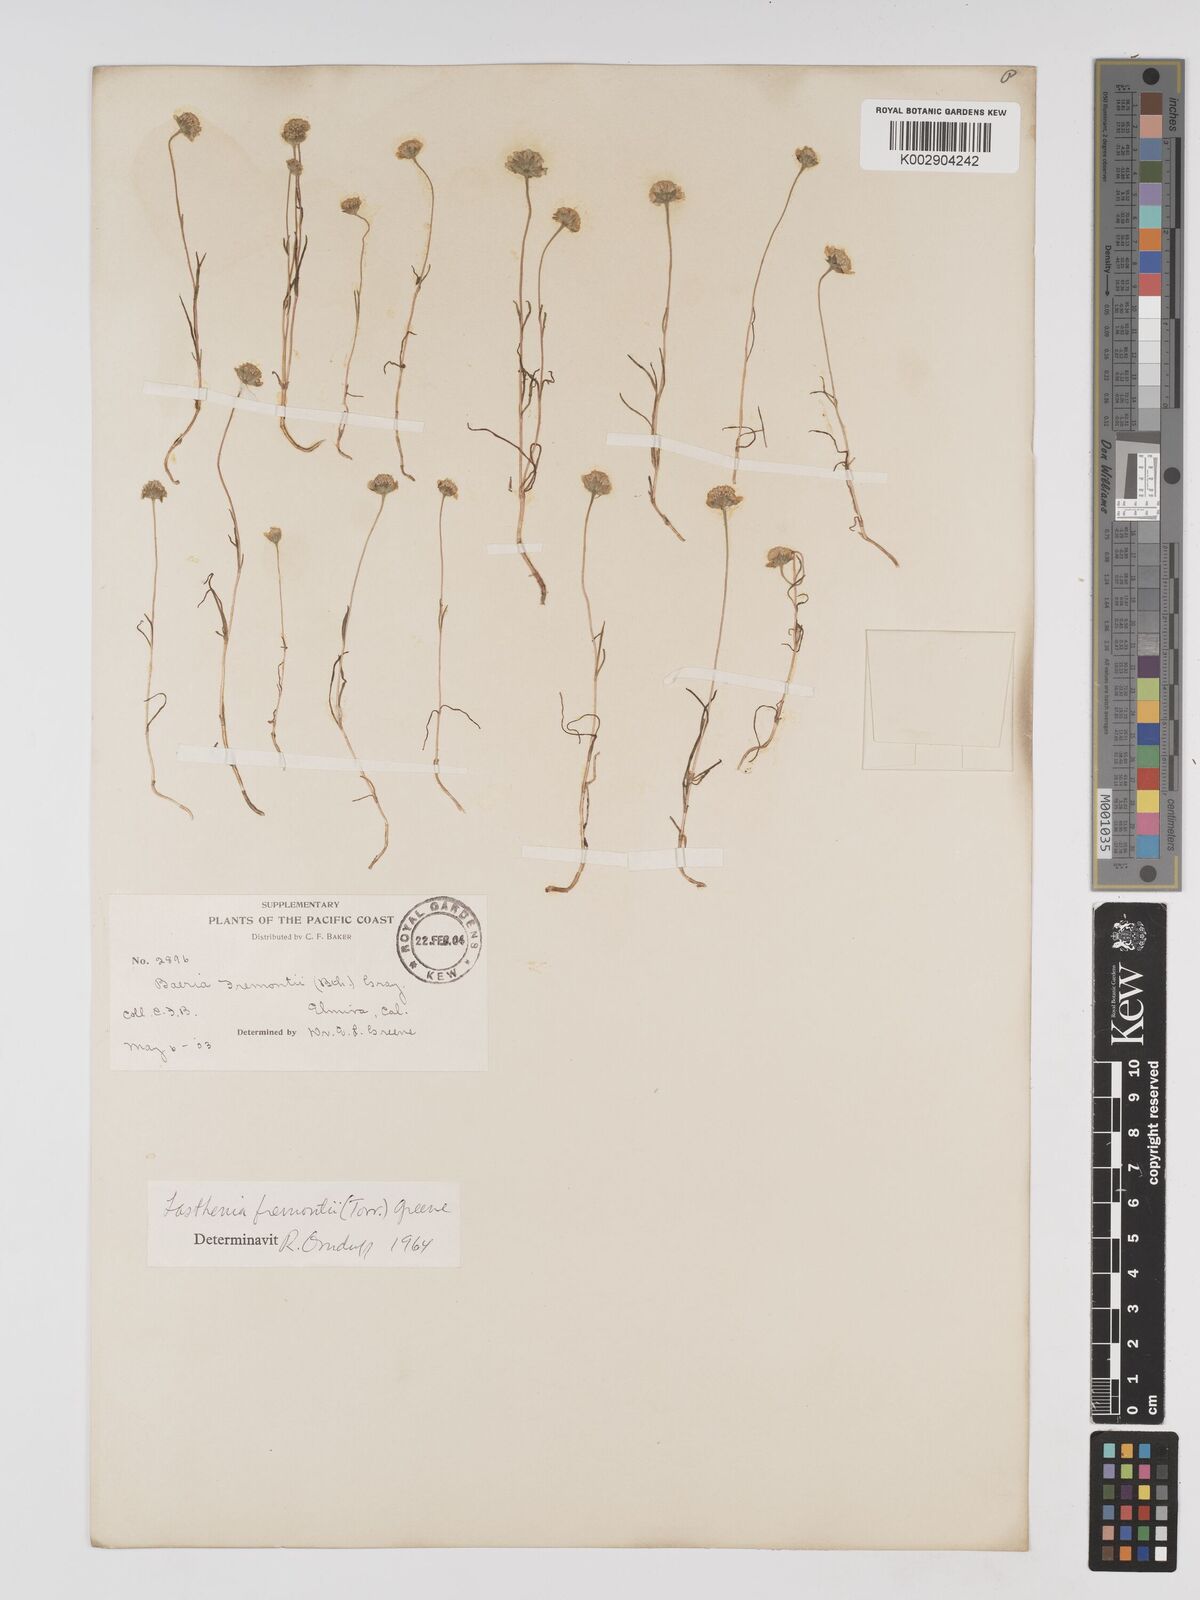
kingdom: Plantae
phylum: Tracheophyta
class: Magnoliopsida
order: Asterales
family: Asteraceae
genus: Lasthenia
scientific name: Lasthenia fremontii
